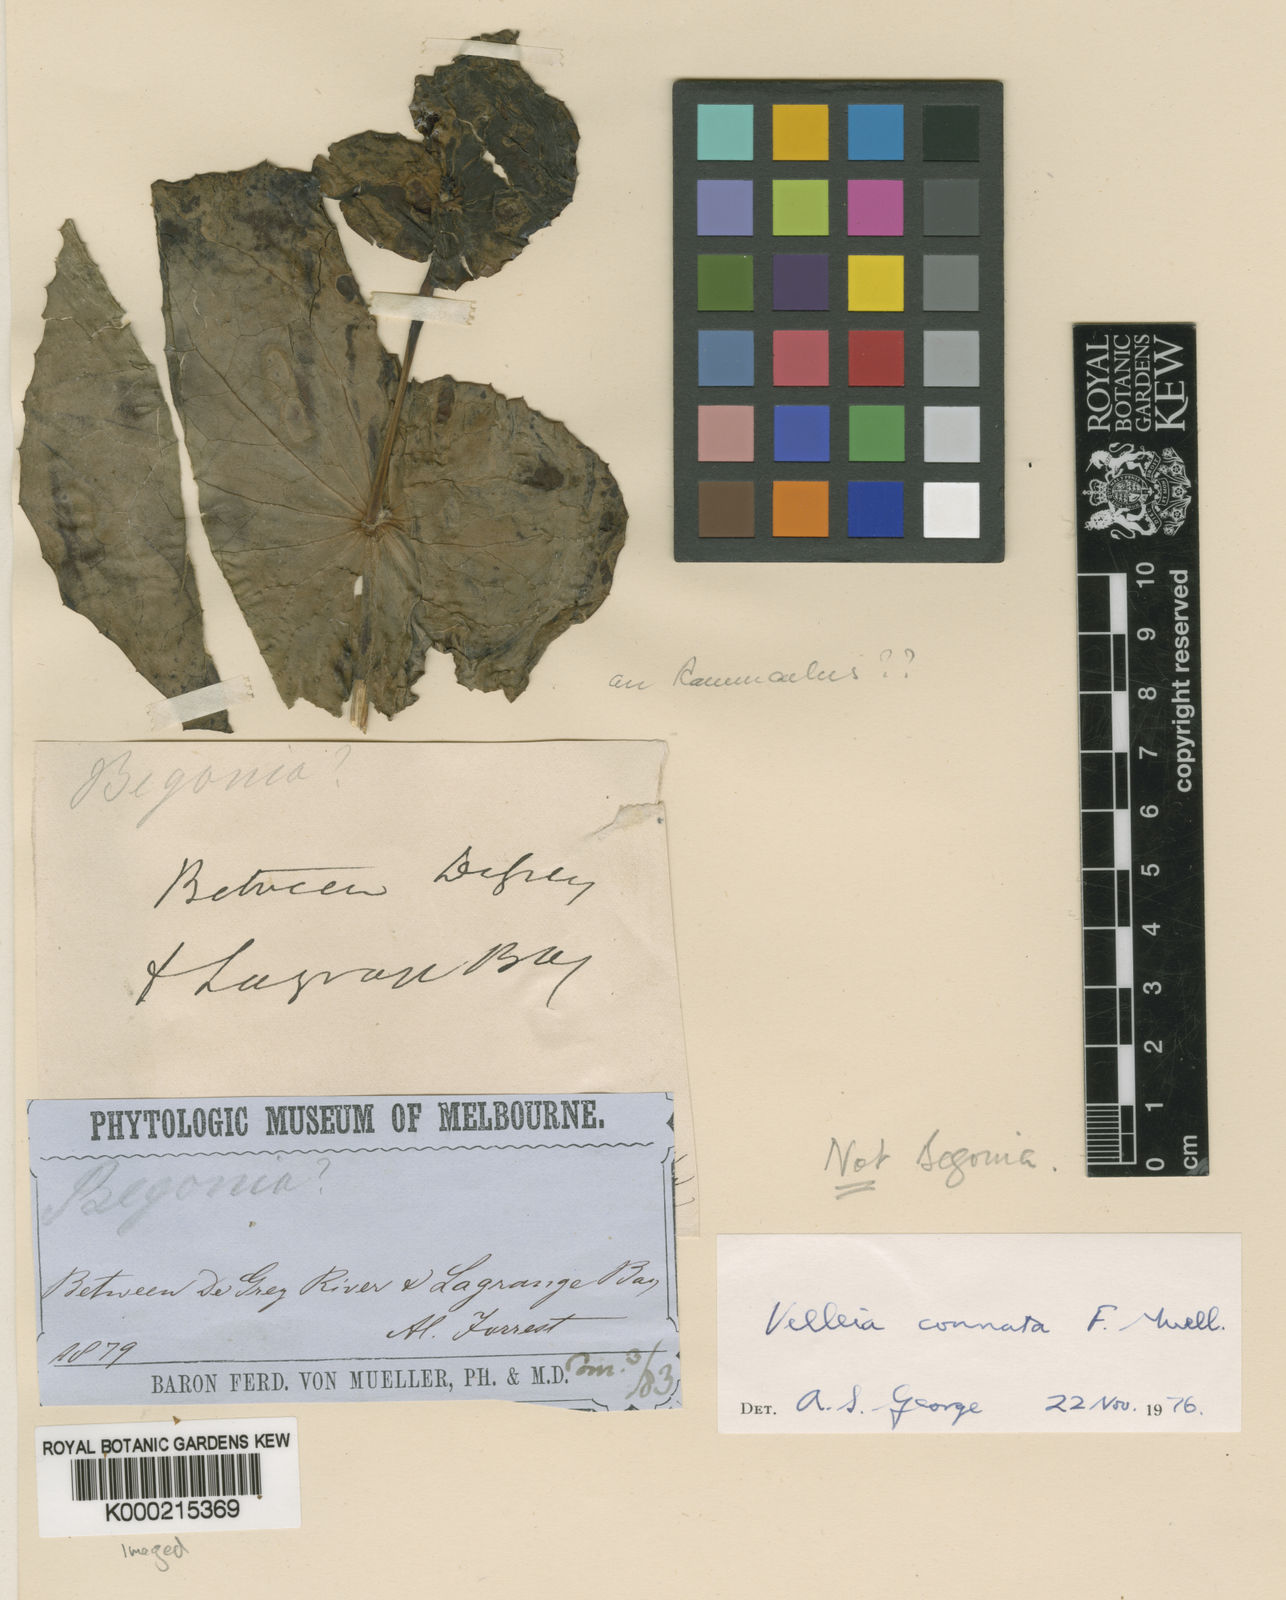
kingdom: Plantae
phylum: Tracheophyta
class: Magnoliopsida
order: Asterales
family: Goodeniaceae
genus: Goodenia
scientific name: Goodenia connata
